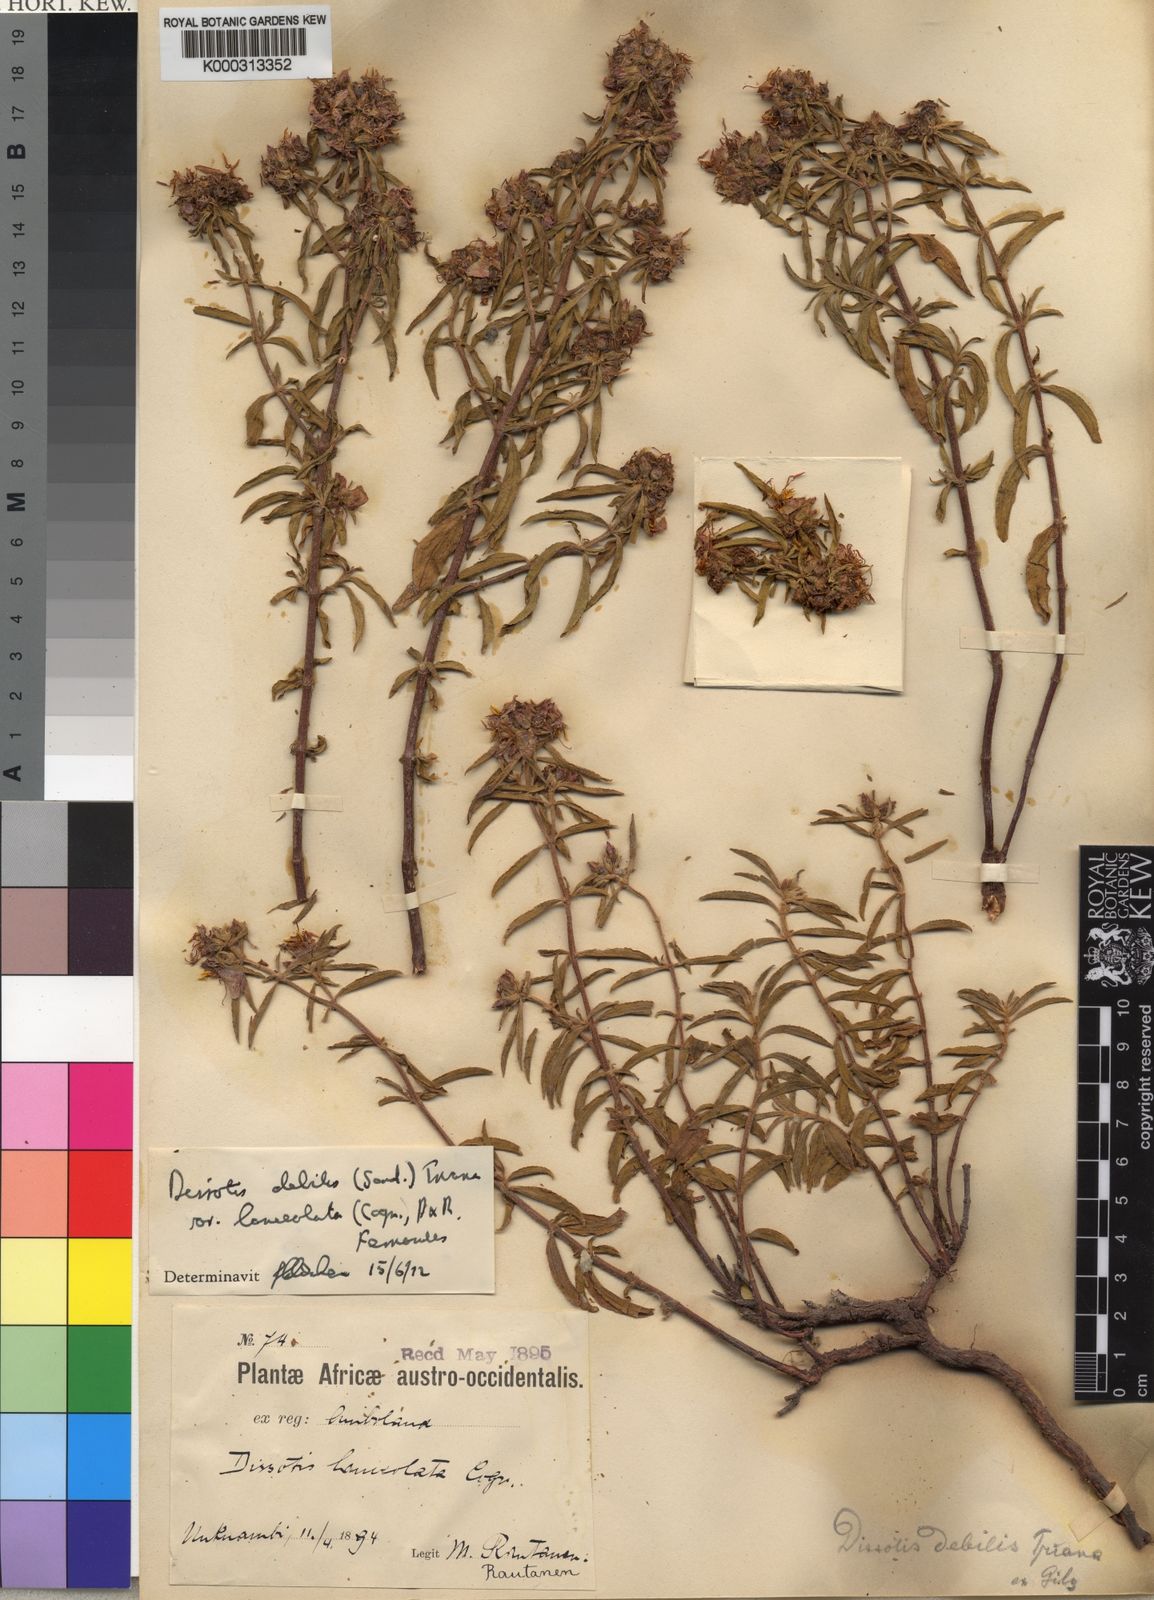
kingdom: Plantae
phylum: Tracheophyta
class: Magnoliopsida
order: Myrtales
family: Melastomataceae
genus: Antherotoma
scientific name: Antherotoma
